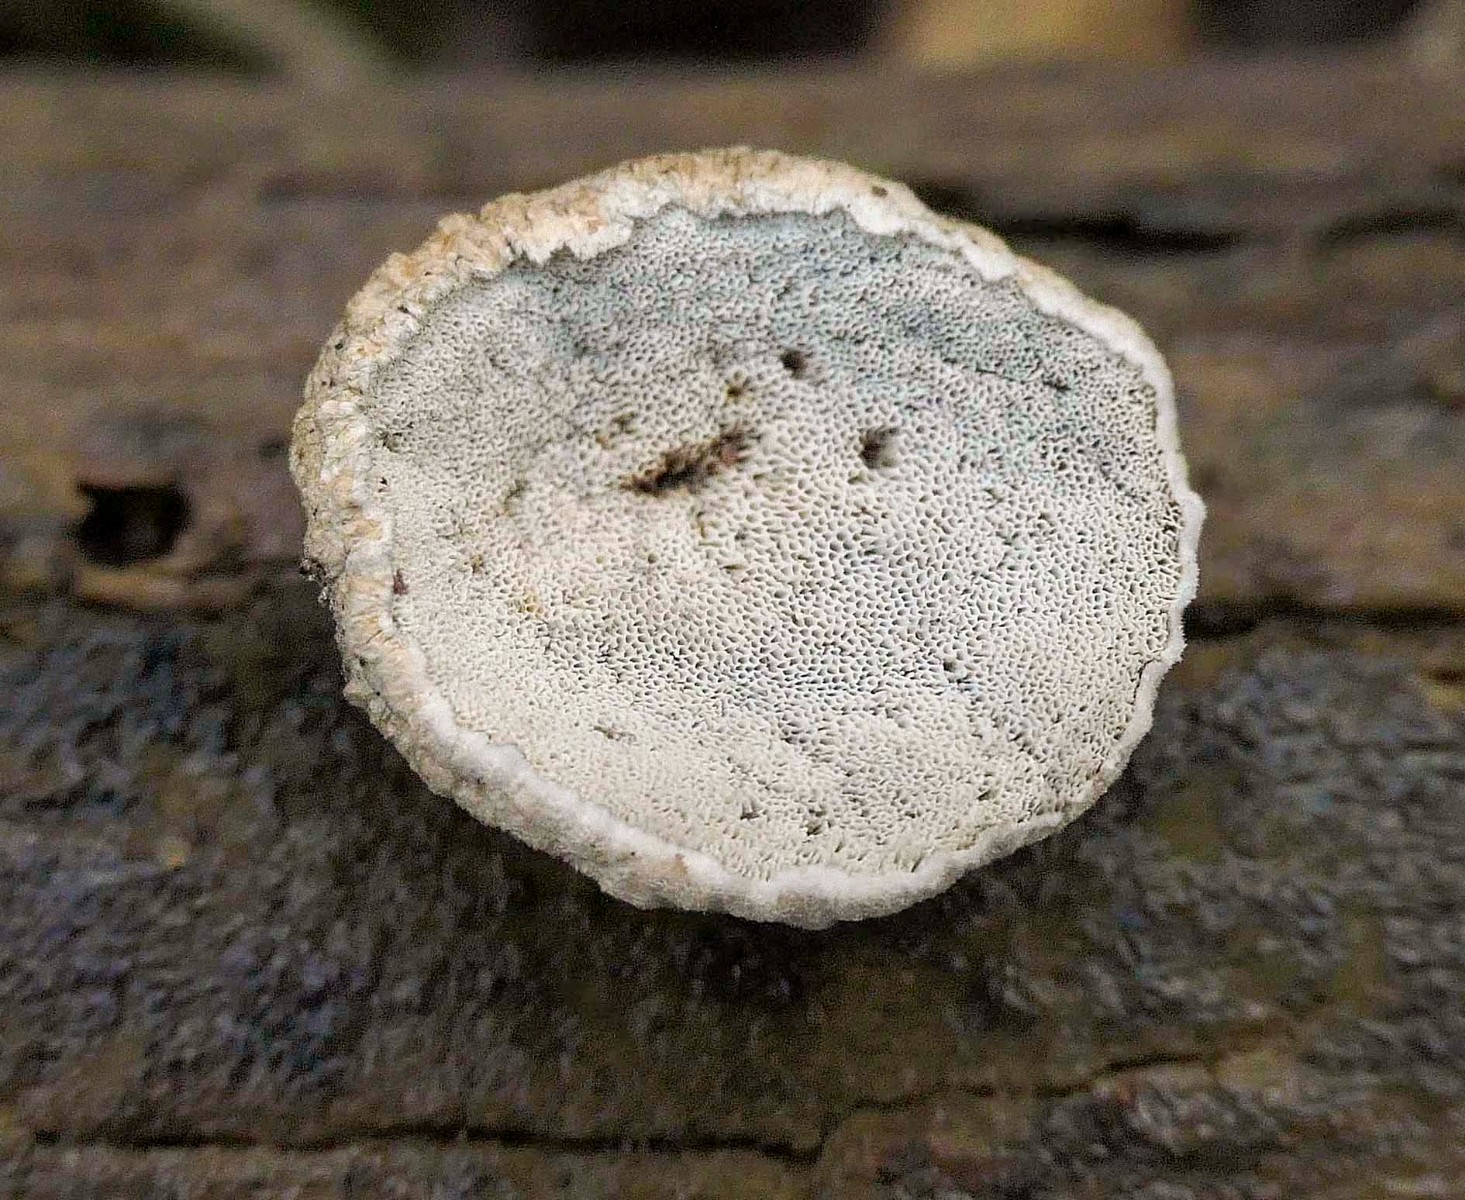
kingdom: Fungi
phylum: Basidiomycota
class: Agaricomycetes
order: Polyporales
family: Polyporaceae
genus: Cyanosporus
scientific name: Cyanosporus alni
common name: blegblå kødporesvamp
